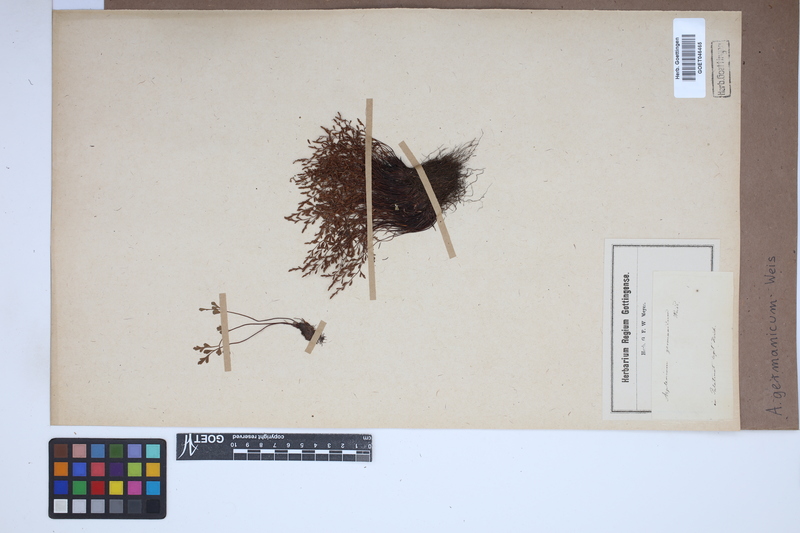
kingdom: Plantae
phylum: Tracheophyta
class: Polypodiopsida
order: Polypodiales
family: Aspleniaceae
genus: Asplenium
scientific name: Asplenium
